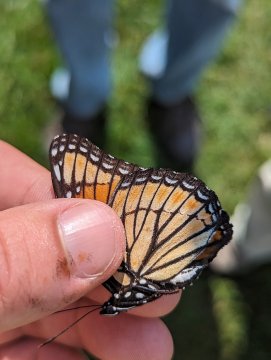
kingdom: Animalia
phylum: Arthropoda
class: Insecta
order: Lepidoptera
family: Nymphalidae
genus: Limenitis
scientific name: Limenitis archippus
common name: Viceroy
